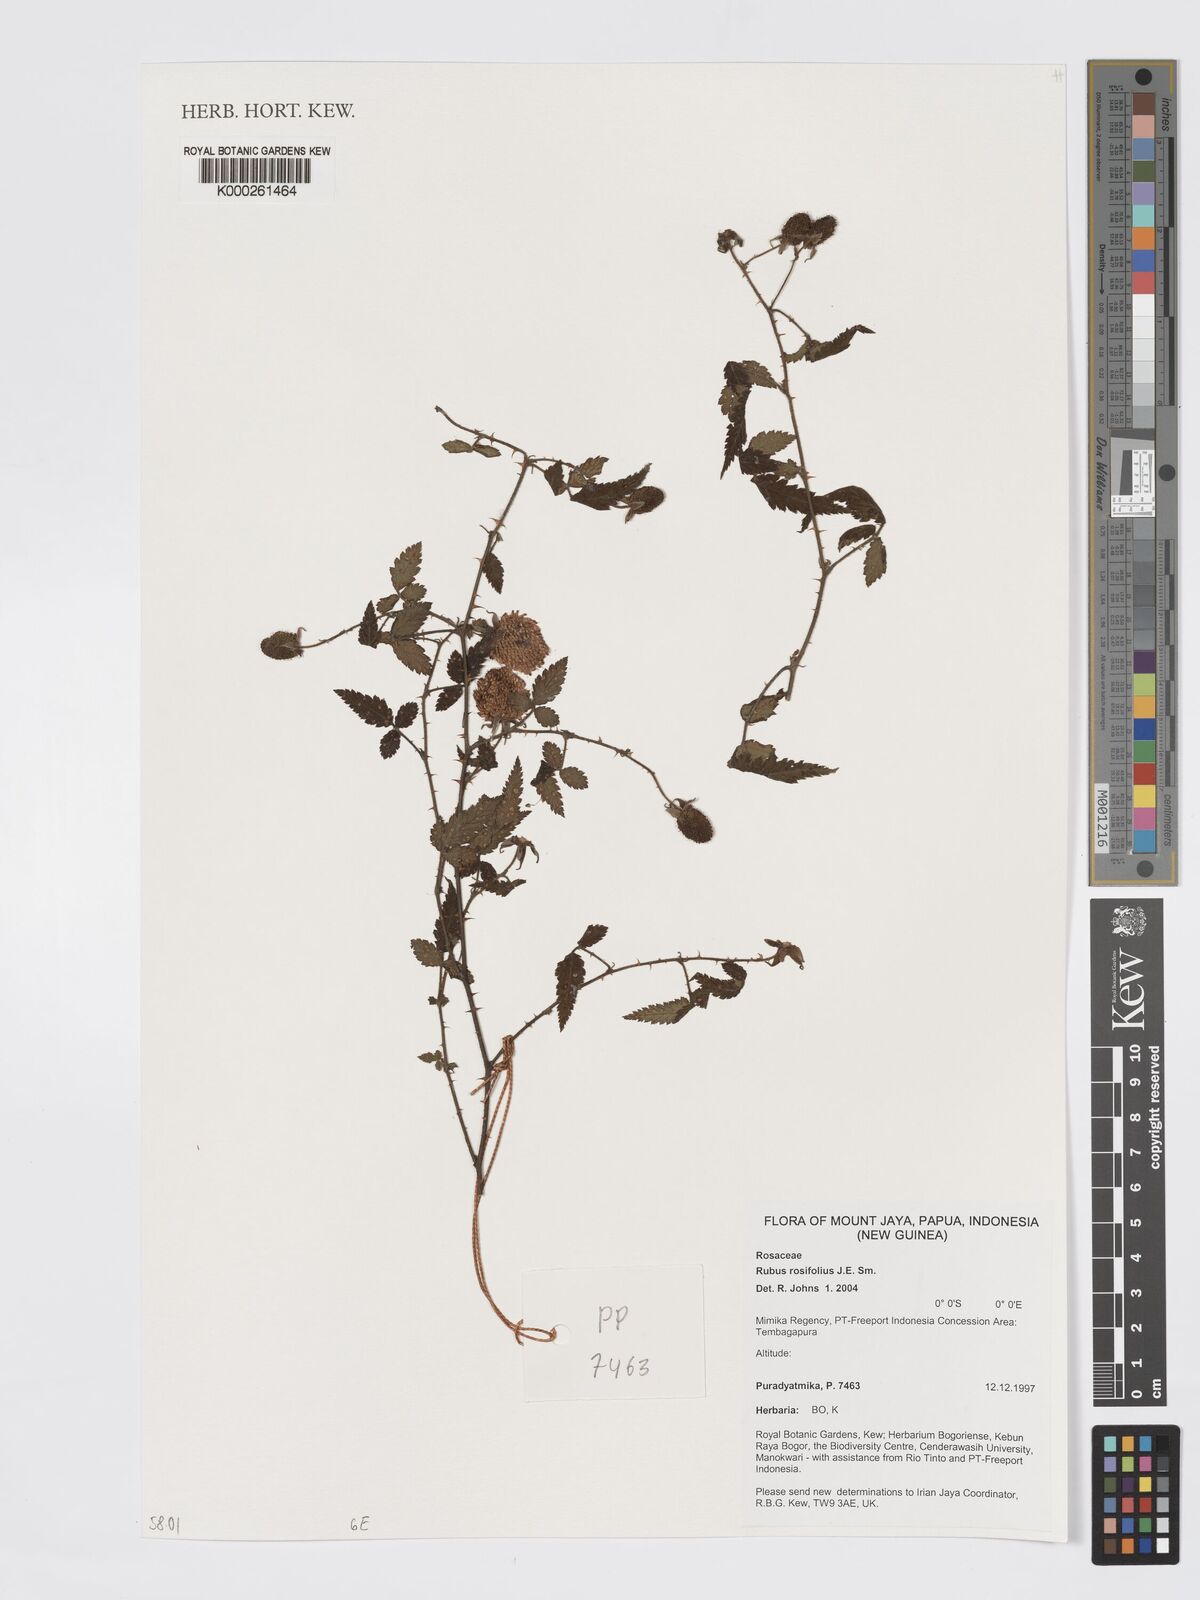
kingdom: Plantae
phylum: Tracheophyta
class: Magnoliopsida
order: Rosales
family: Rosaceae
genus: Rubus
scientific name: Rubus
